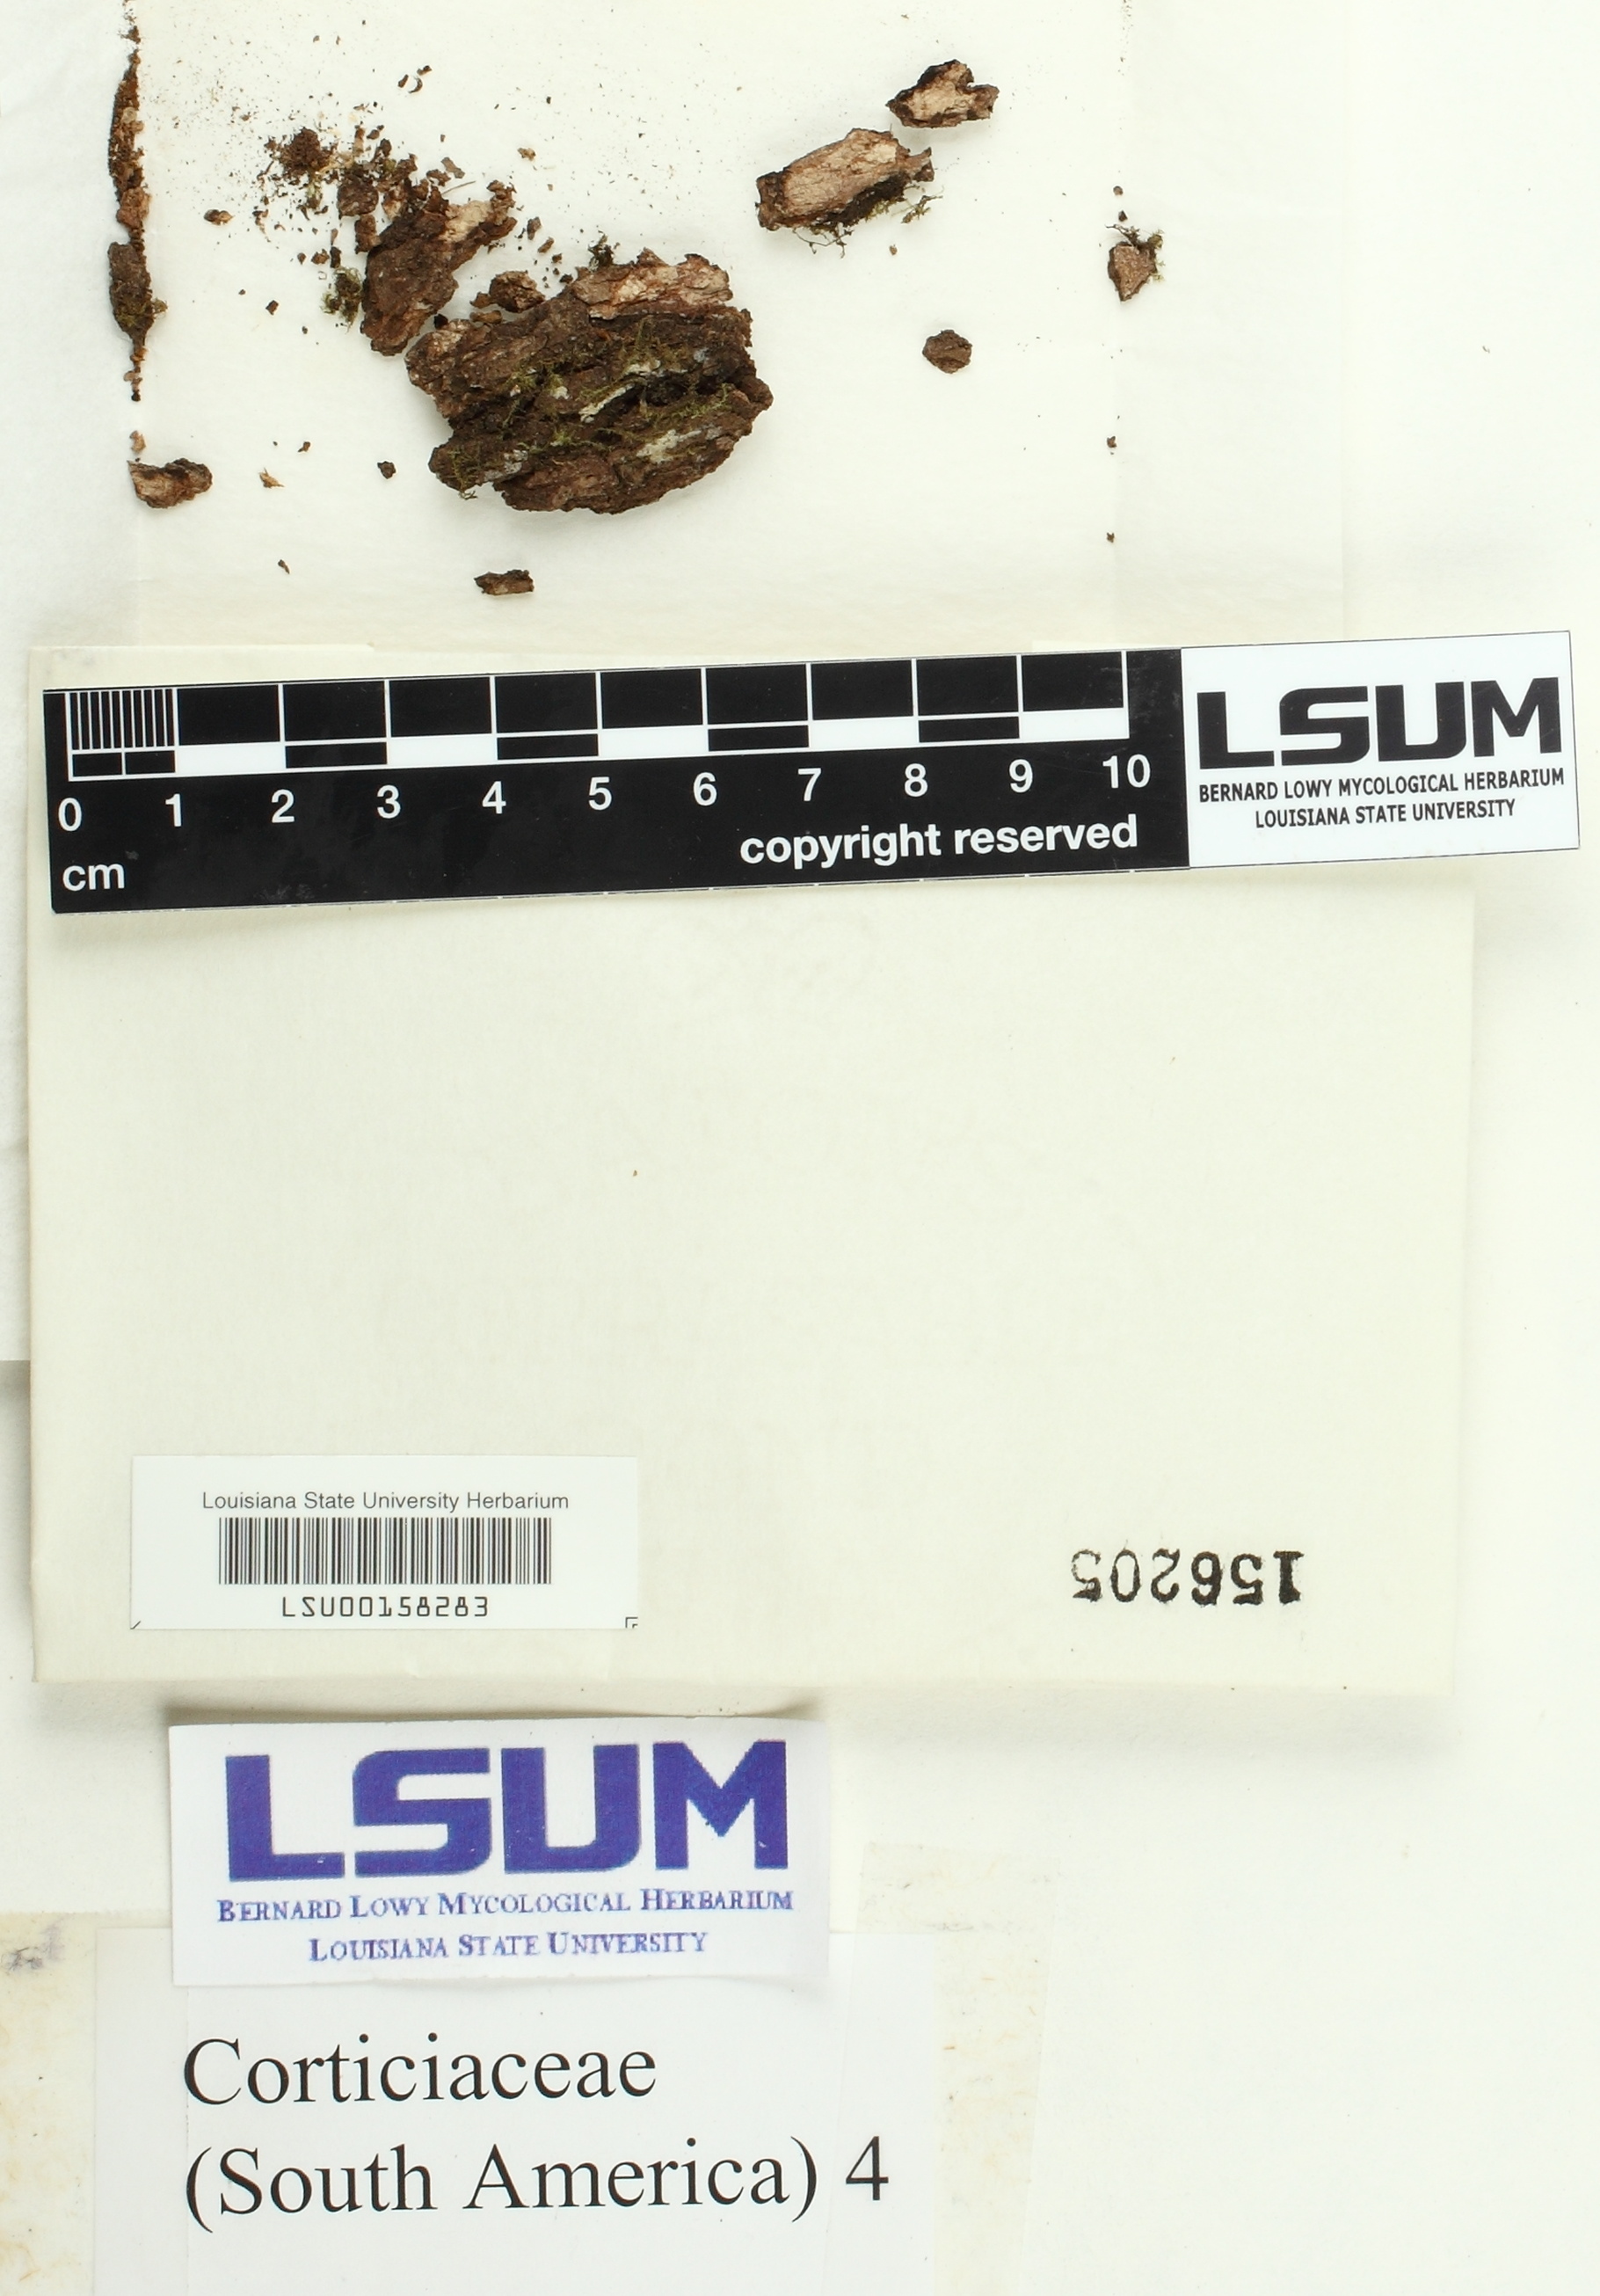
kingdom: Fungi
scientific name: Fungi
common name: Fungi
